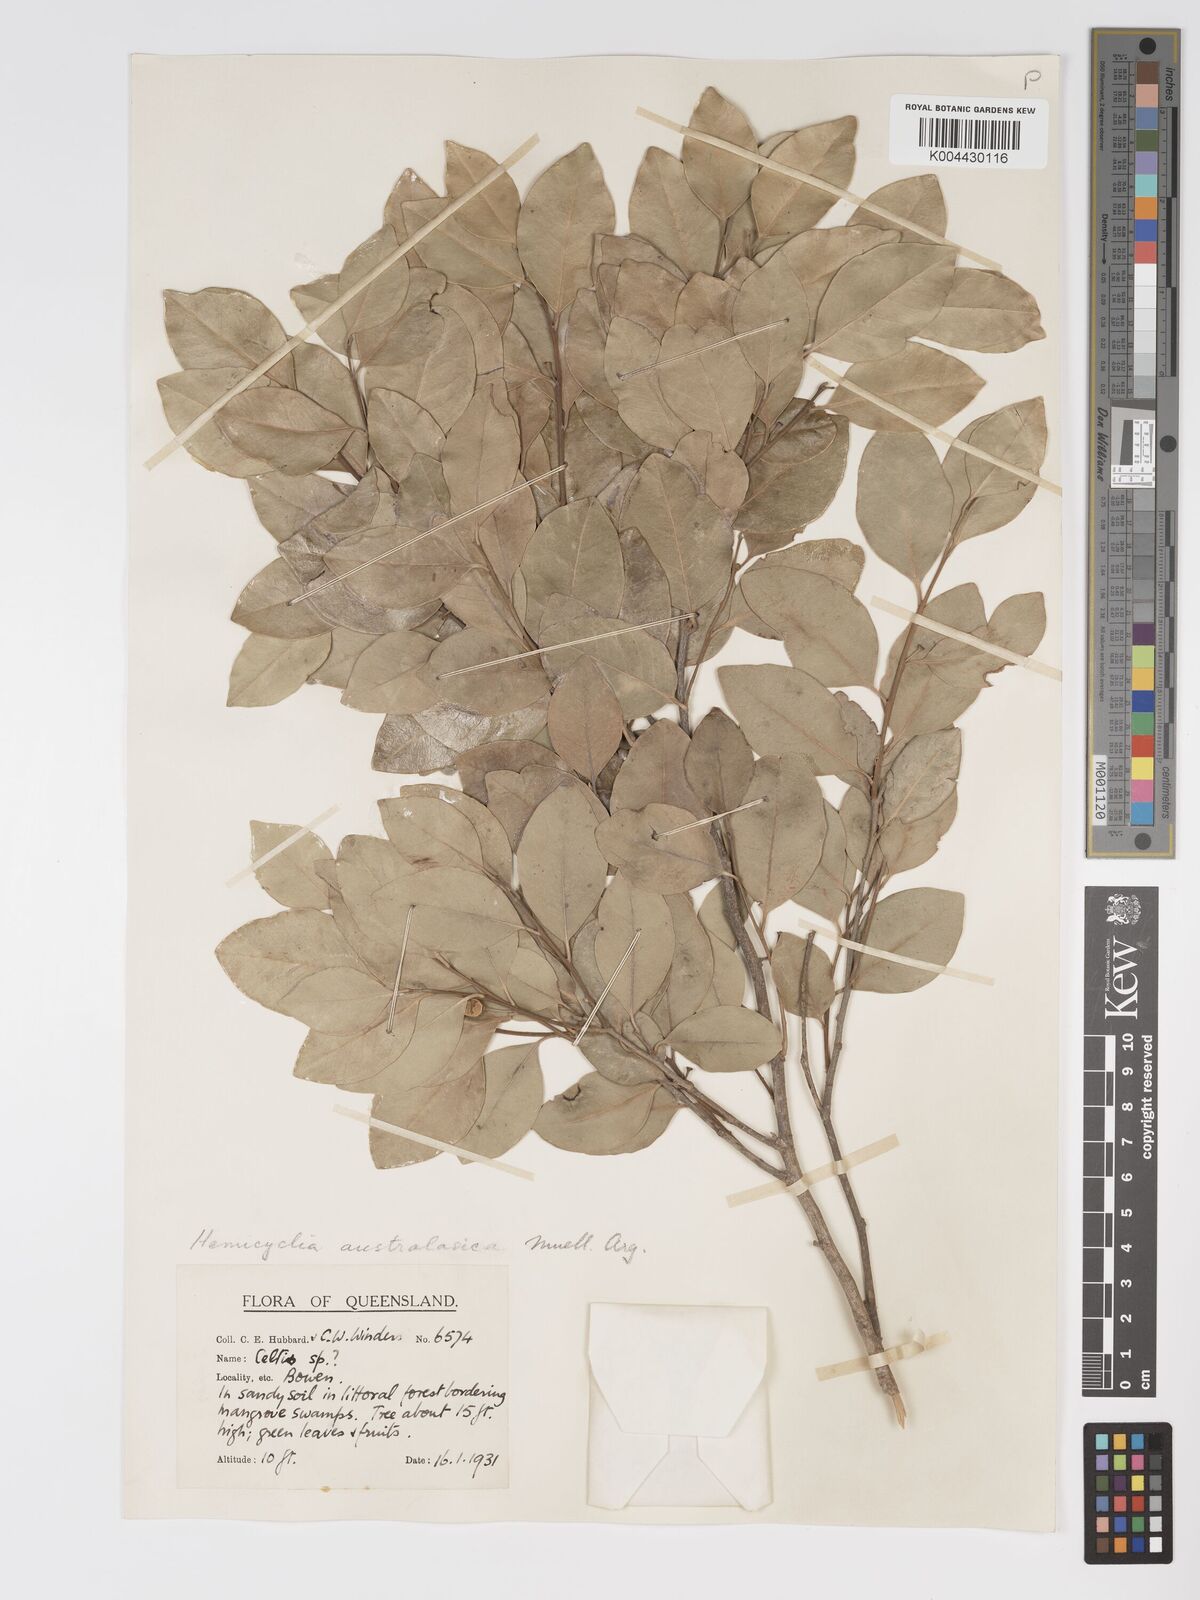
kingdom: Plantae
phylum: Tracheophyta
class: Magnoliopsida
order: Malpighiales
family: Putranjivaceae
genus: Drypetes
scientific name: Drypetes deplanchei
